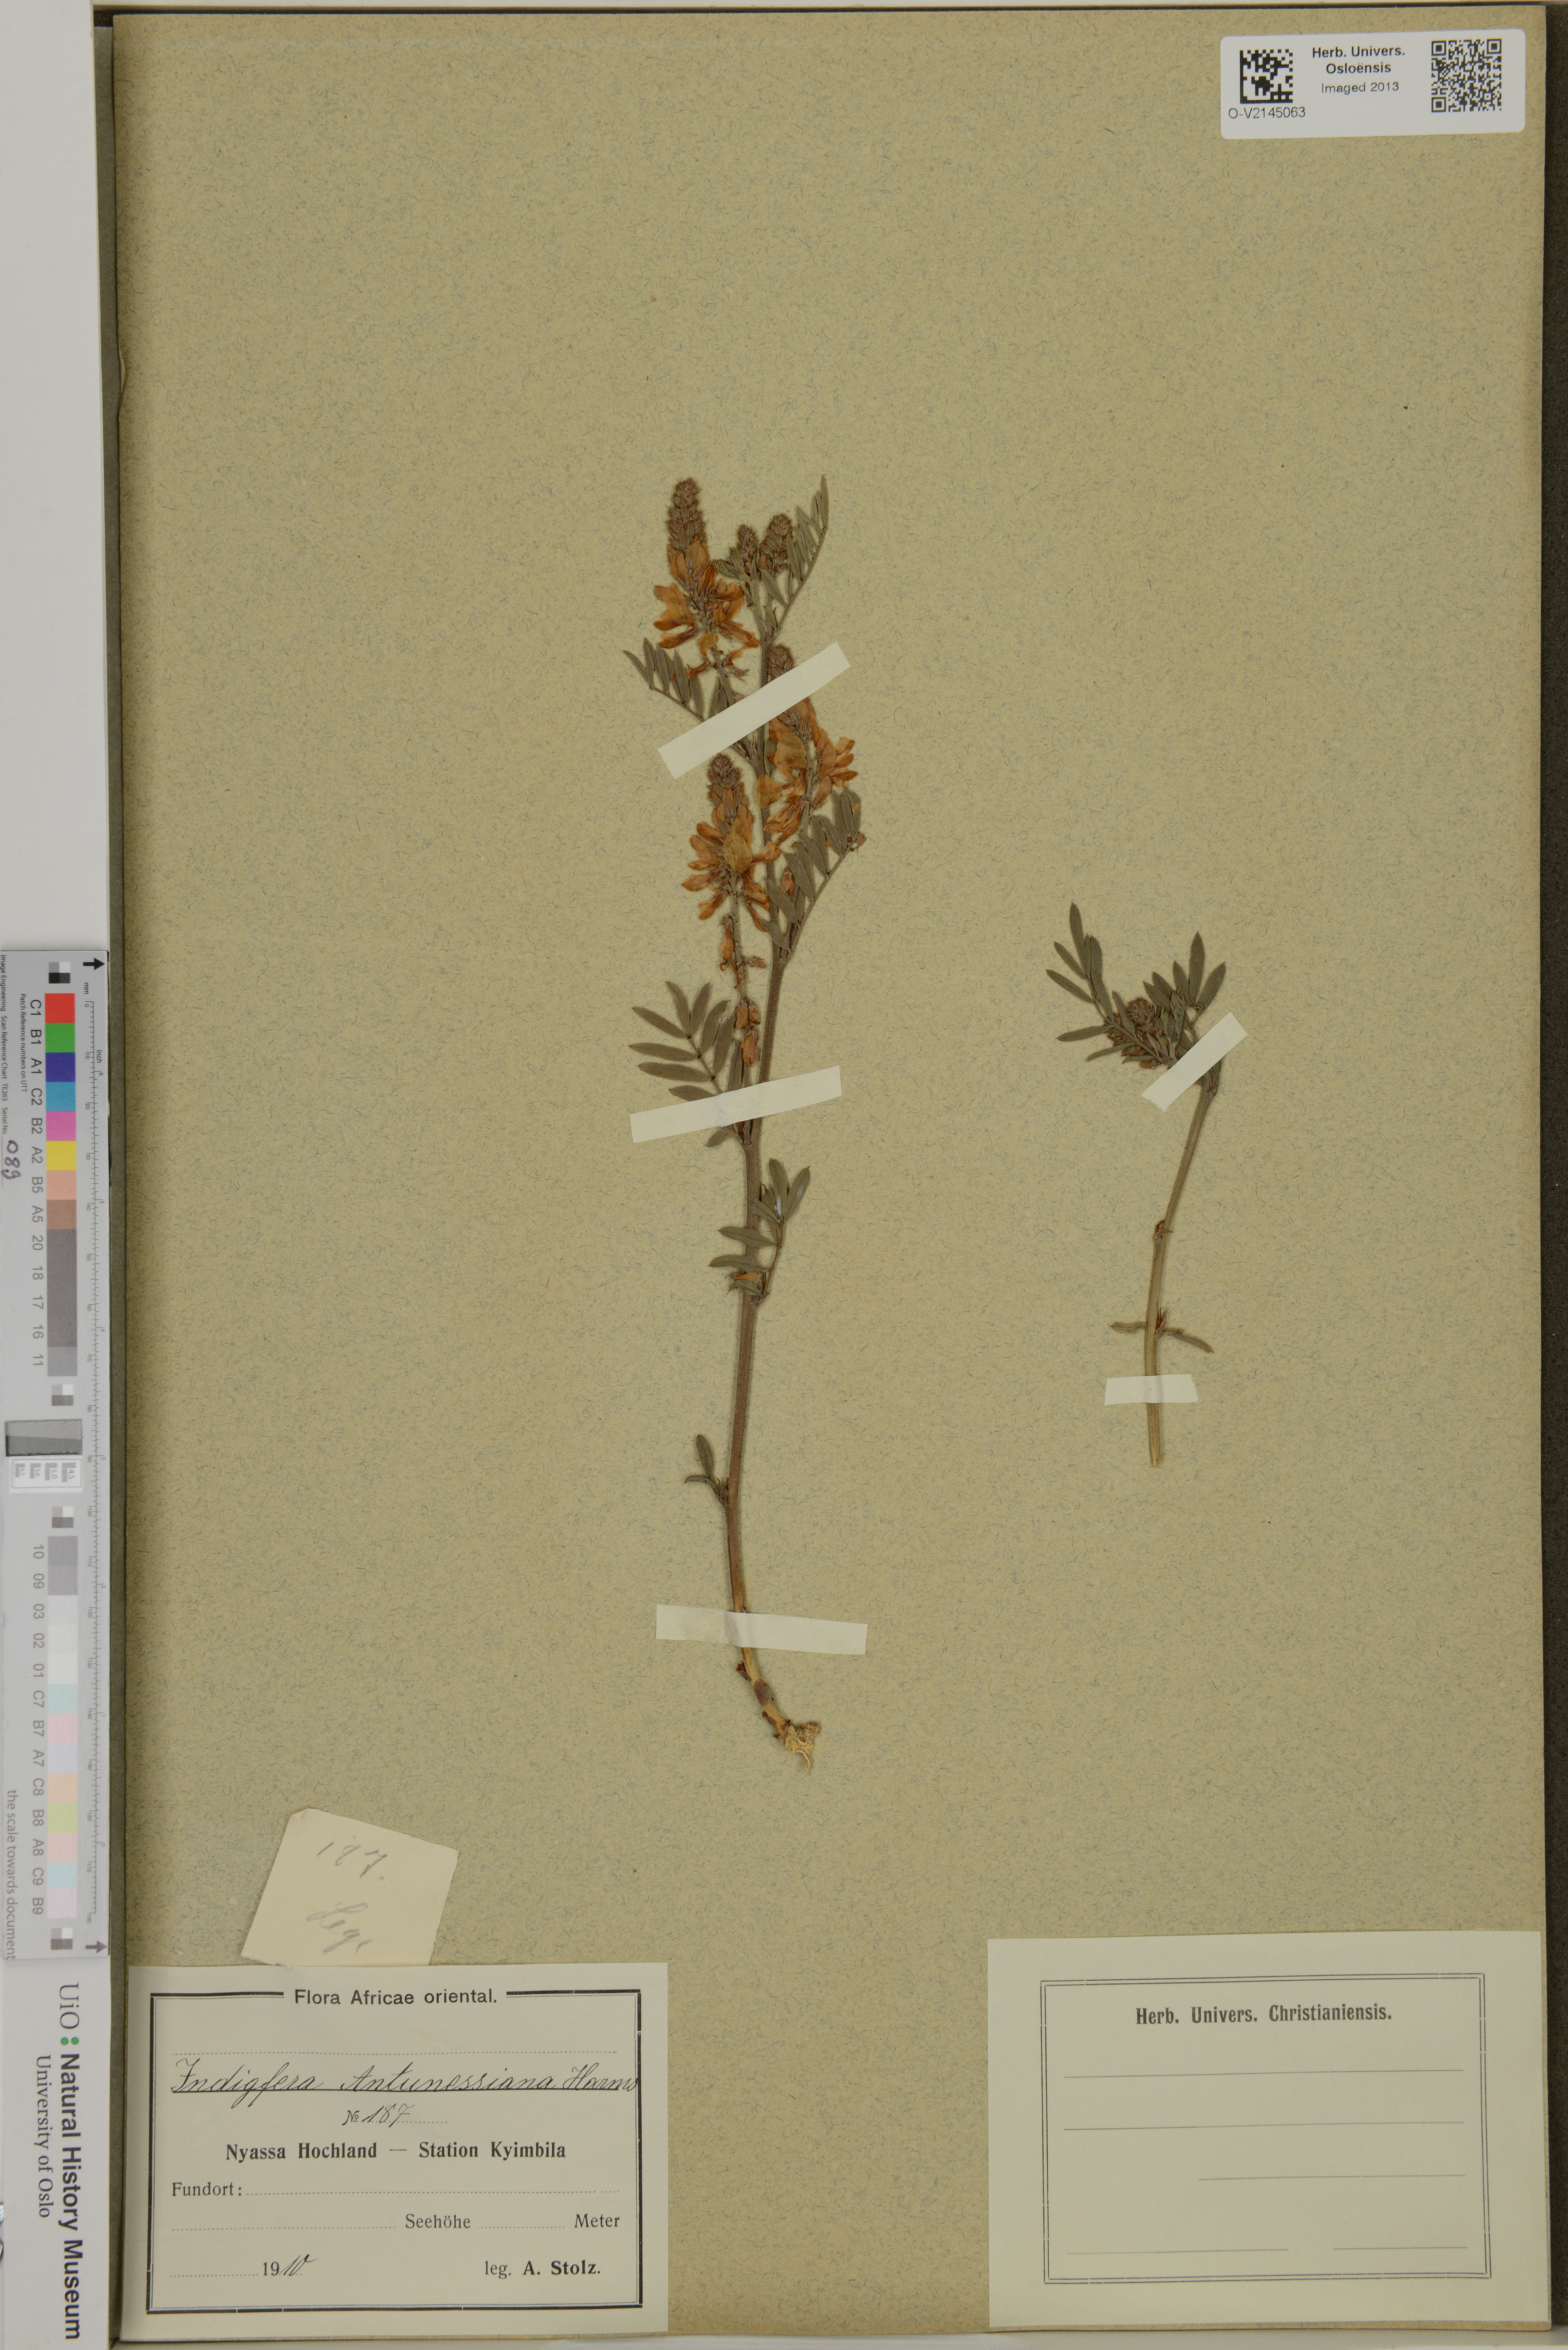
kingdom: Plantae
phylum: Tracheophyta
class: Magnoliopsida
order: Fabales
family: Fabaceae
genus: Indigofera
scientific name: Indigofera antunesiana
